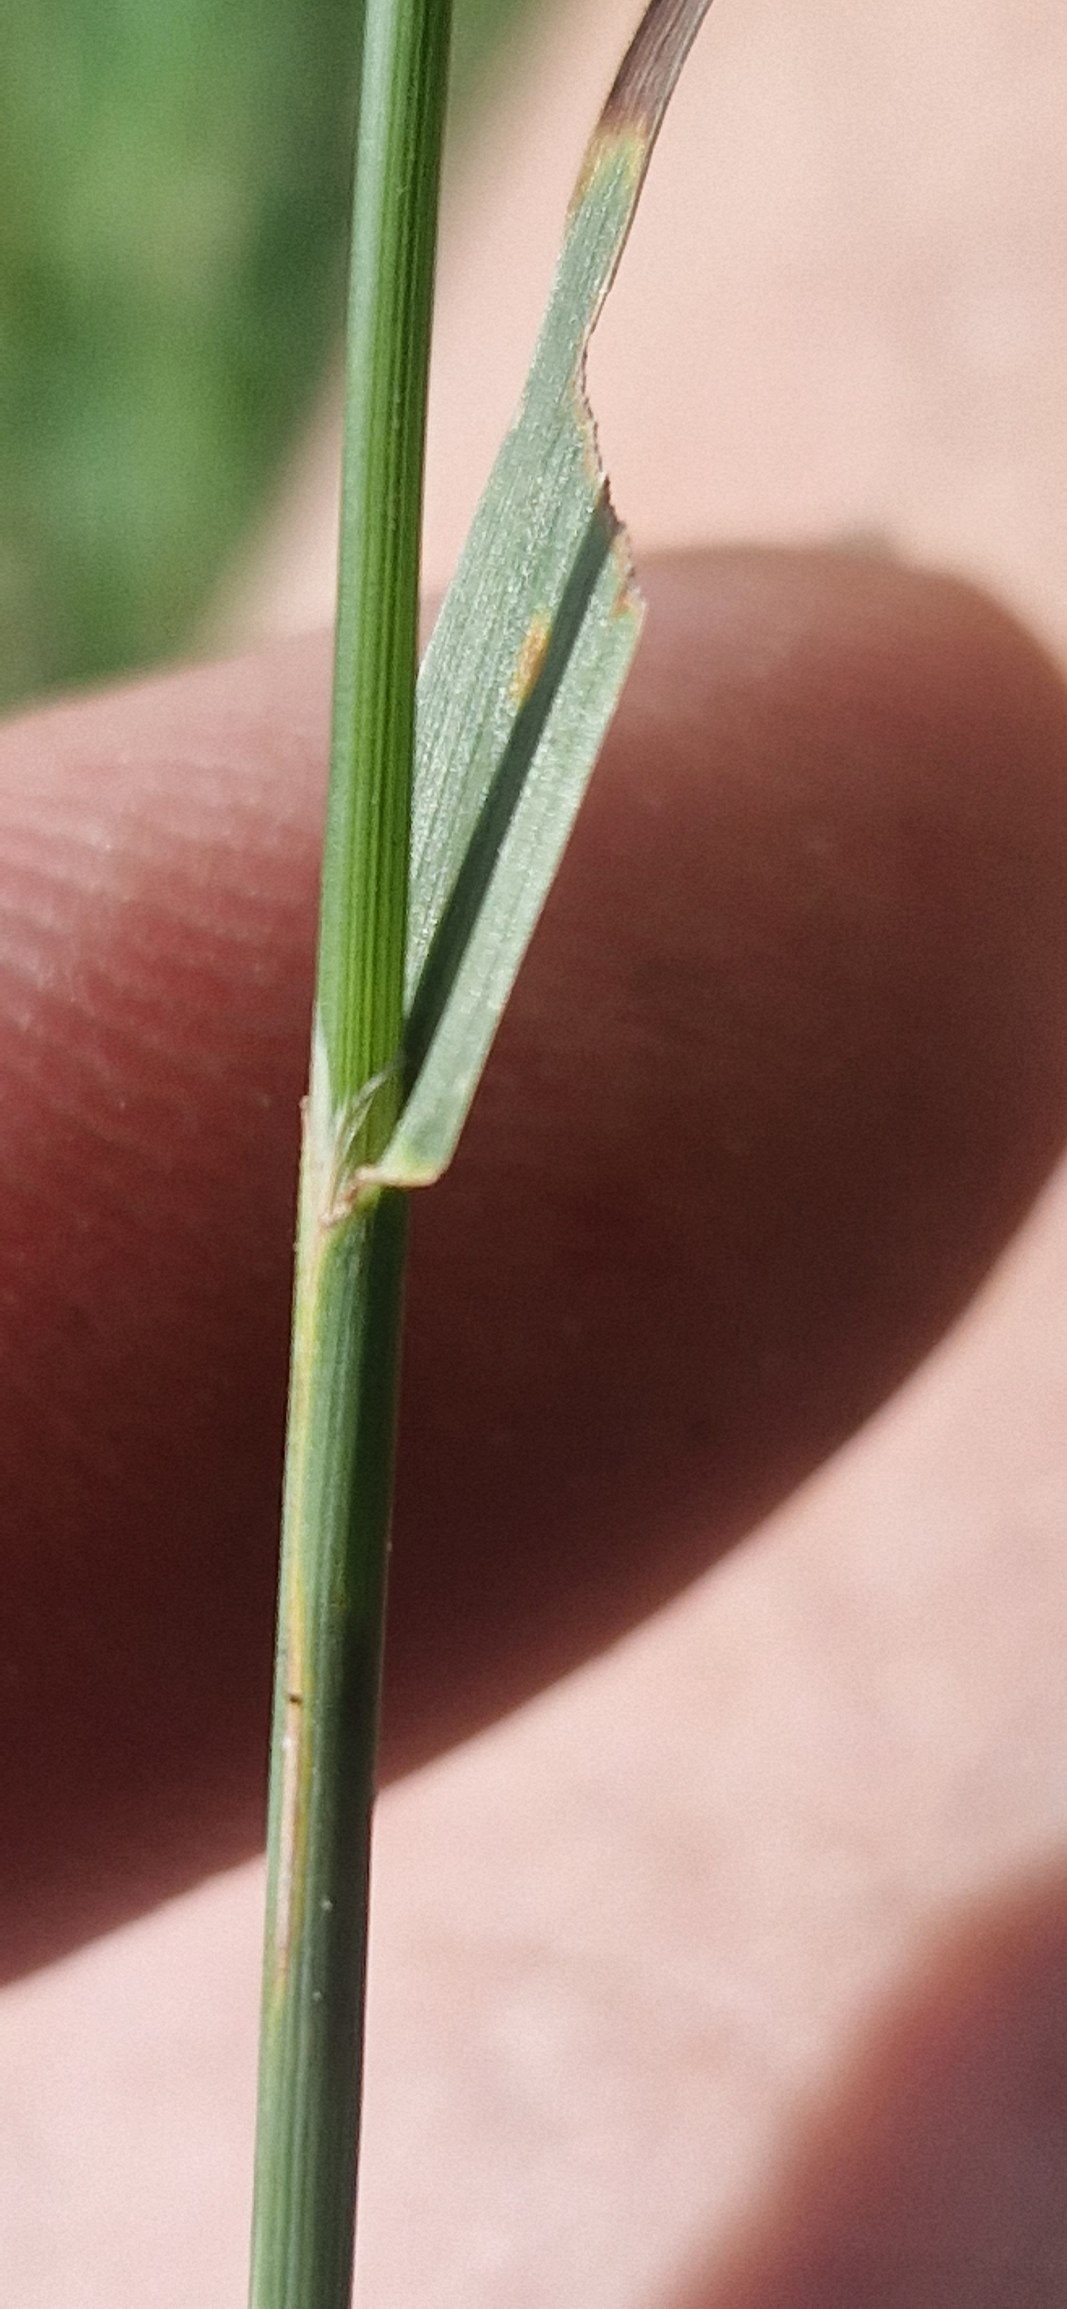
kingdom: Plantae
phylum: Tracheophyta
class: Liliopsida
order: Poales
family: Poaceae
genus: Phleum
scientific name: Phleum pratense
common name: Knold-rottehale
